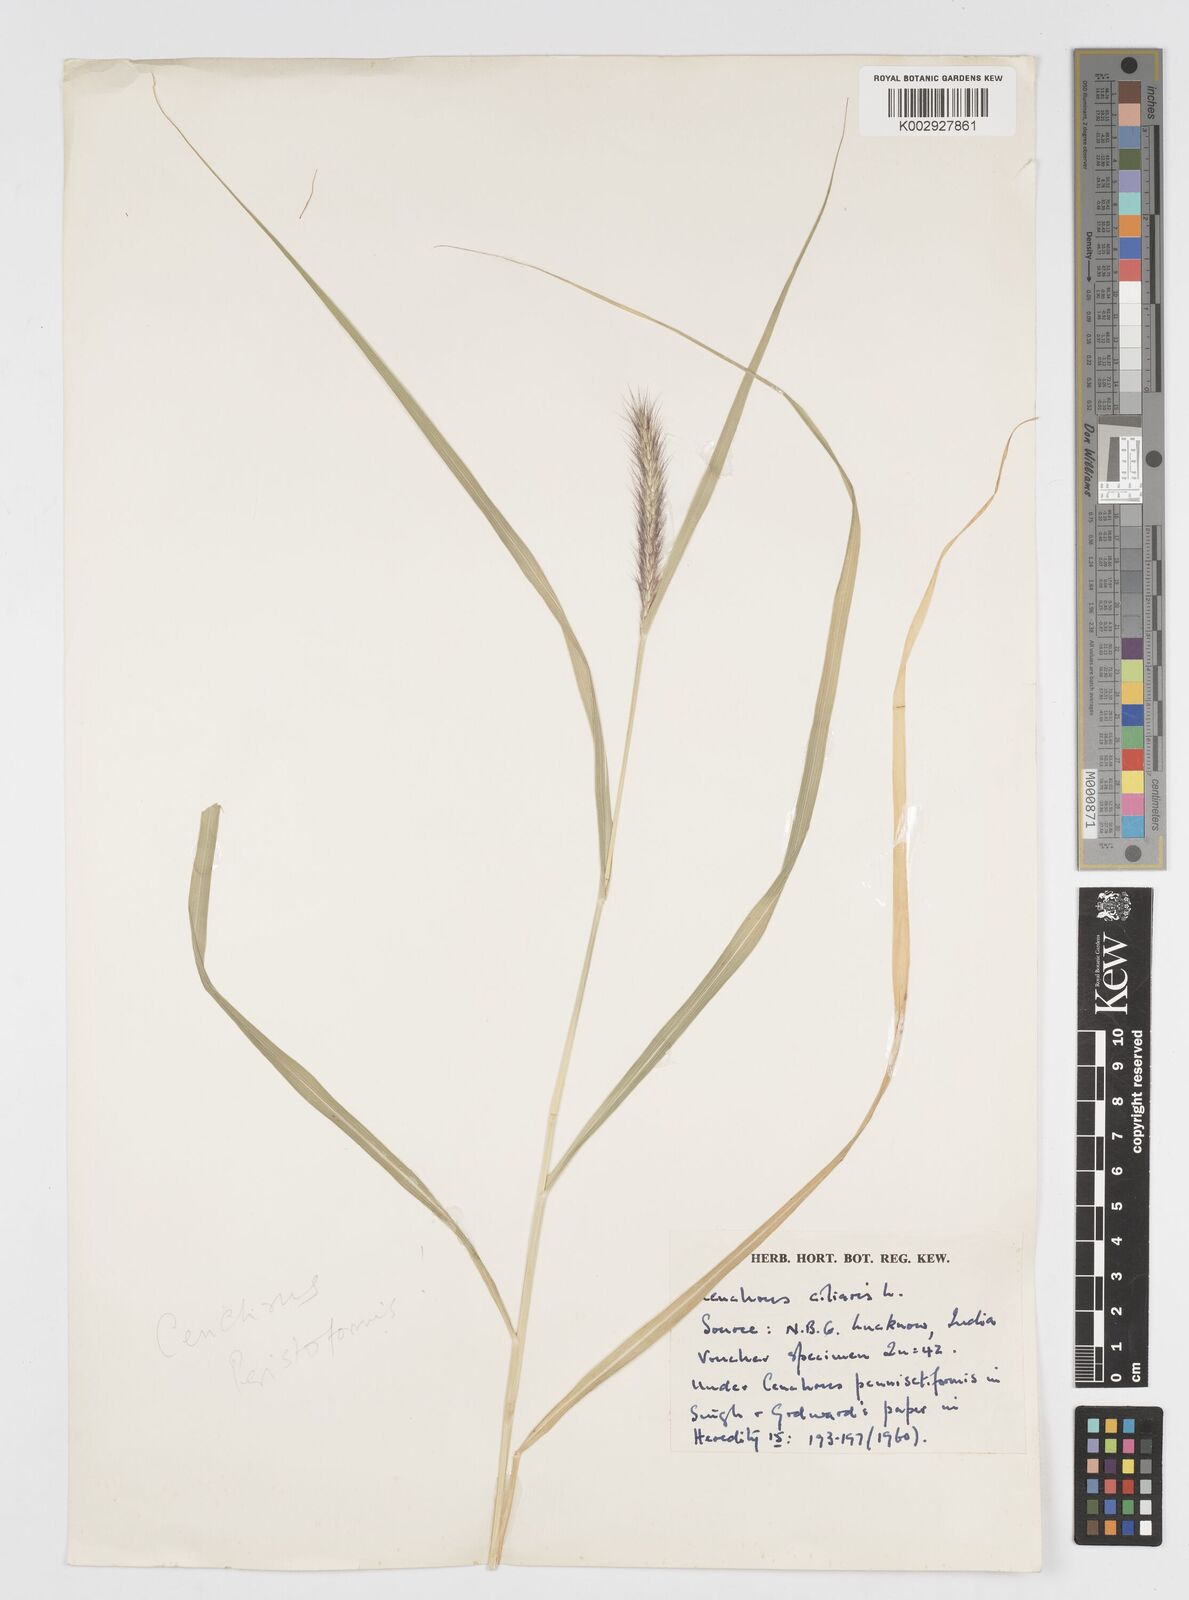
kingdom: Plantae
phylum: Tracheophyta
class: Liliopsida
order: Poales
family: Poaceae
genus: Cenchrus
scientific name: Cenchrus ciliaris
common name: Buffelgrass
